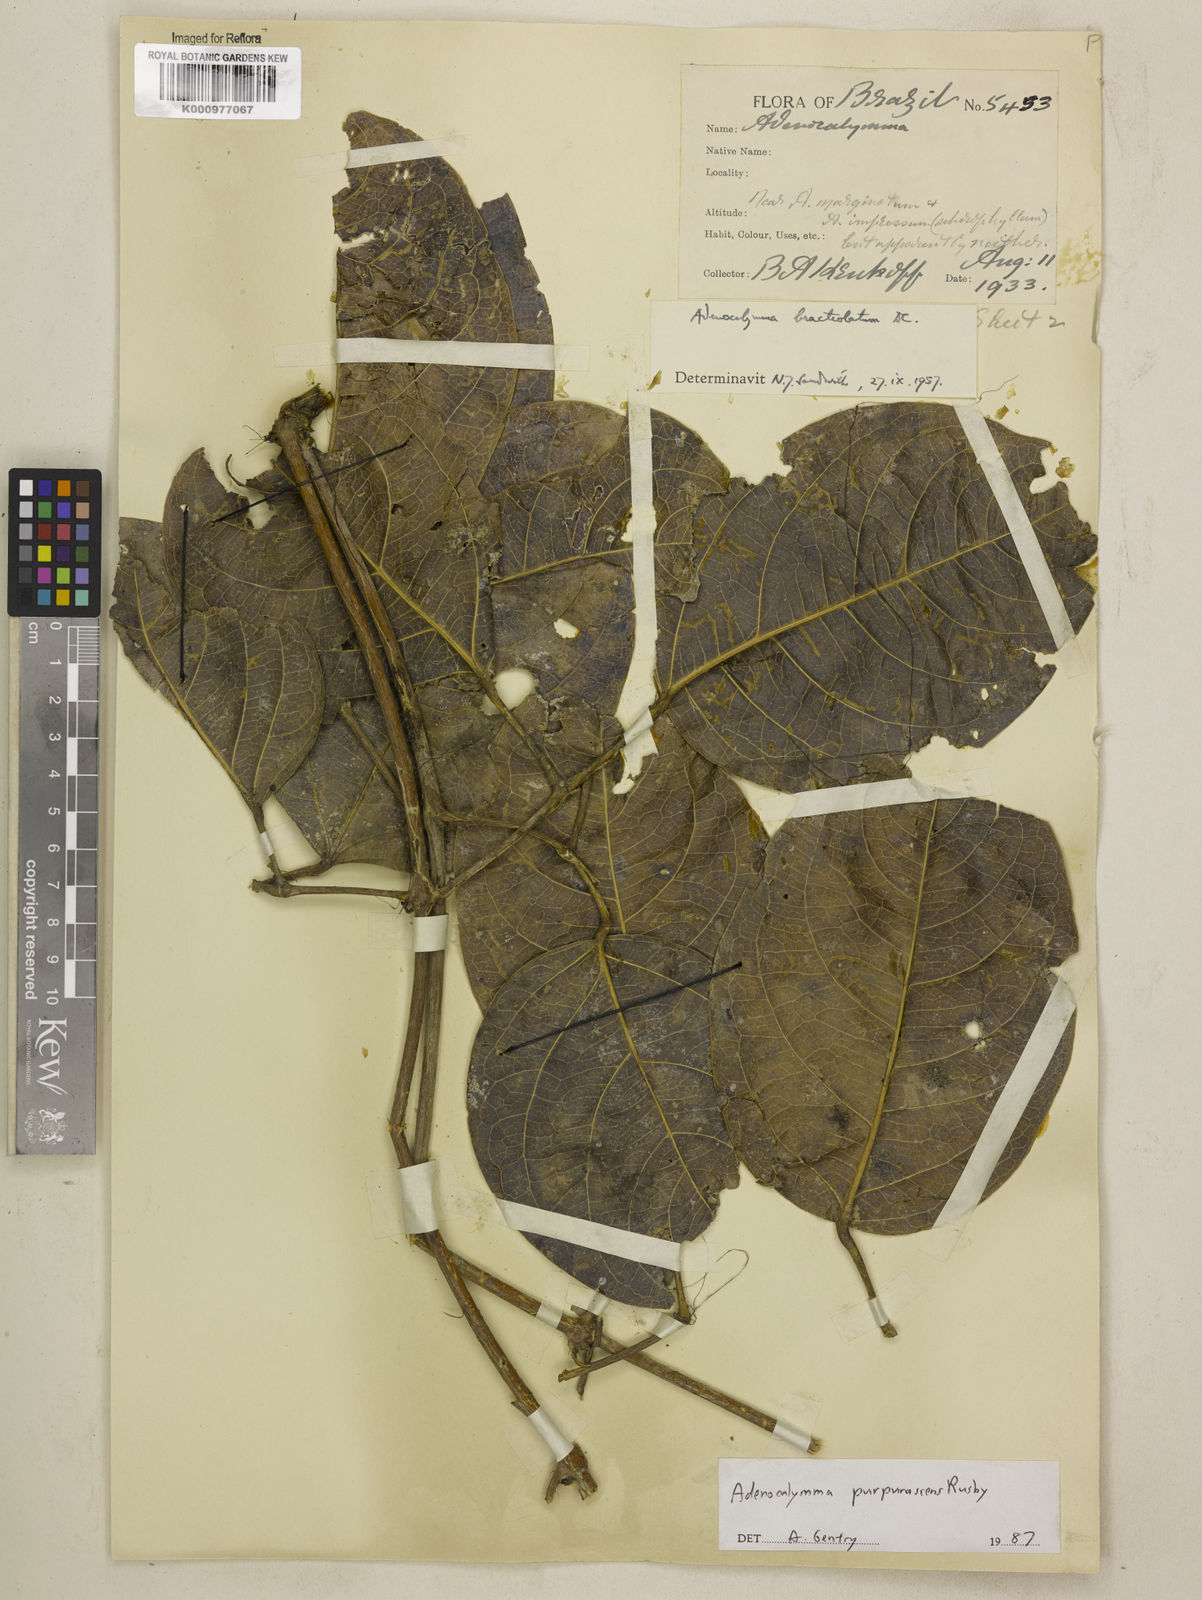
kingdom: Plantae
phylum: Tracheophyta
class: Magnoliopsida
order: Lamiales
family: Bignoniaceae
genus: Adenocalymma
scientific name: Adenocalymma purpurascens
